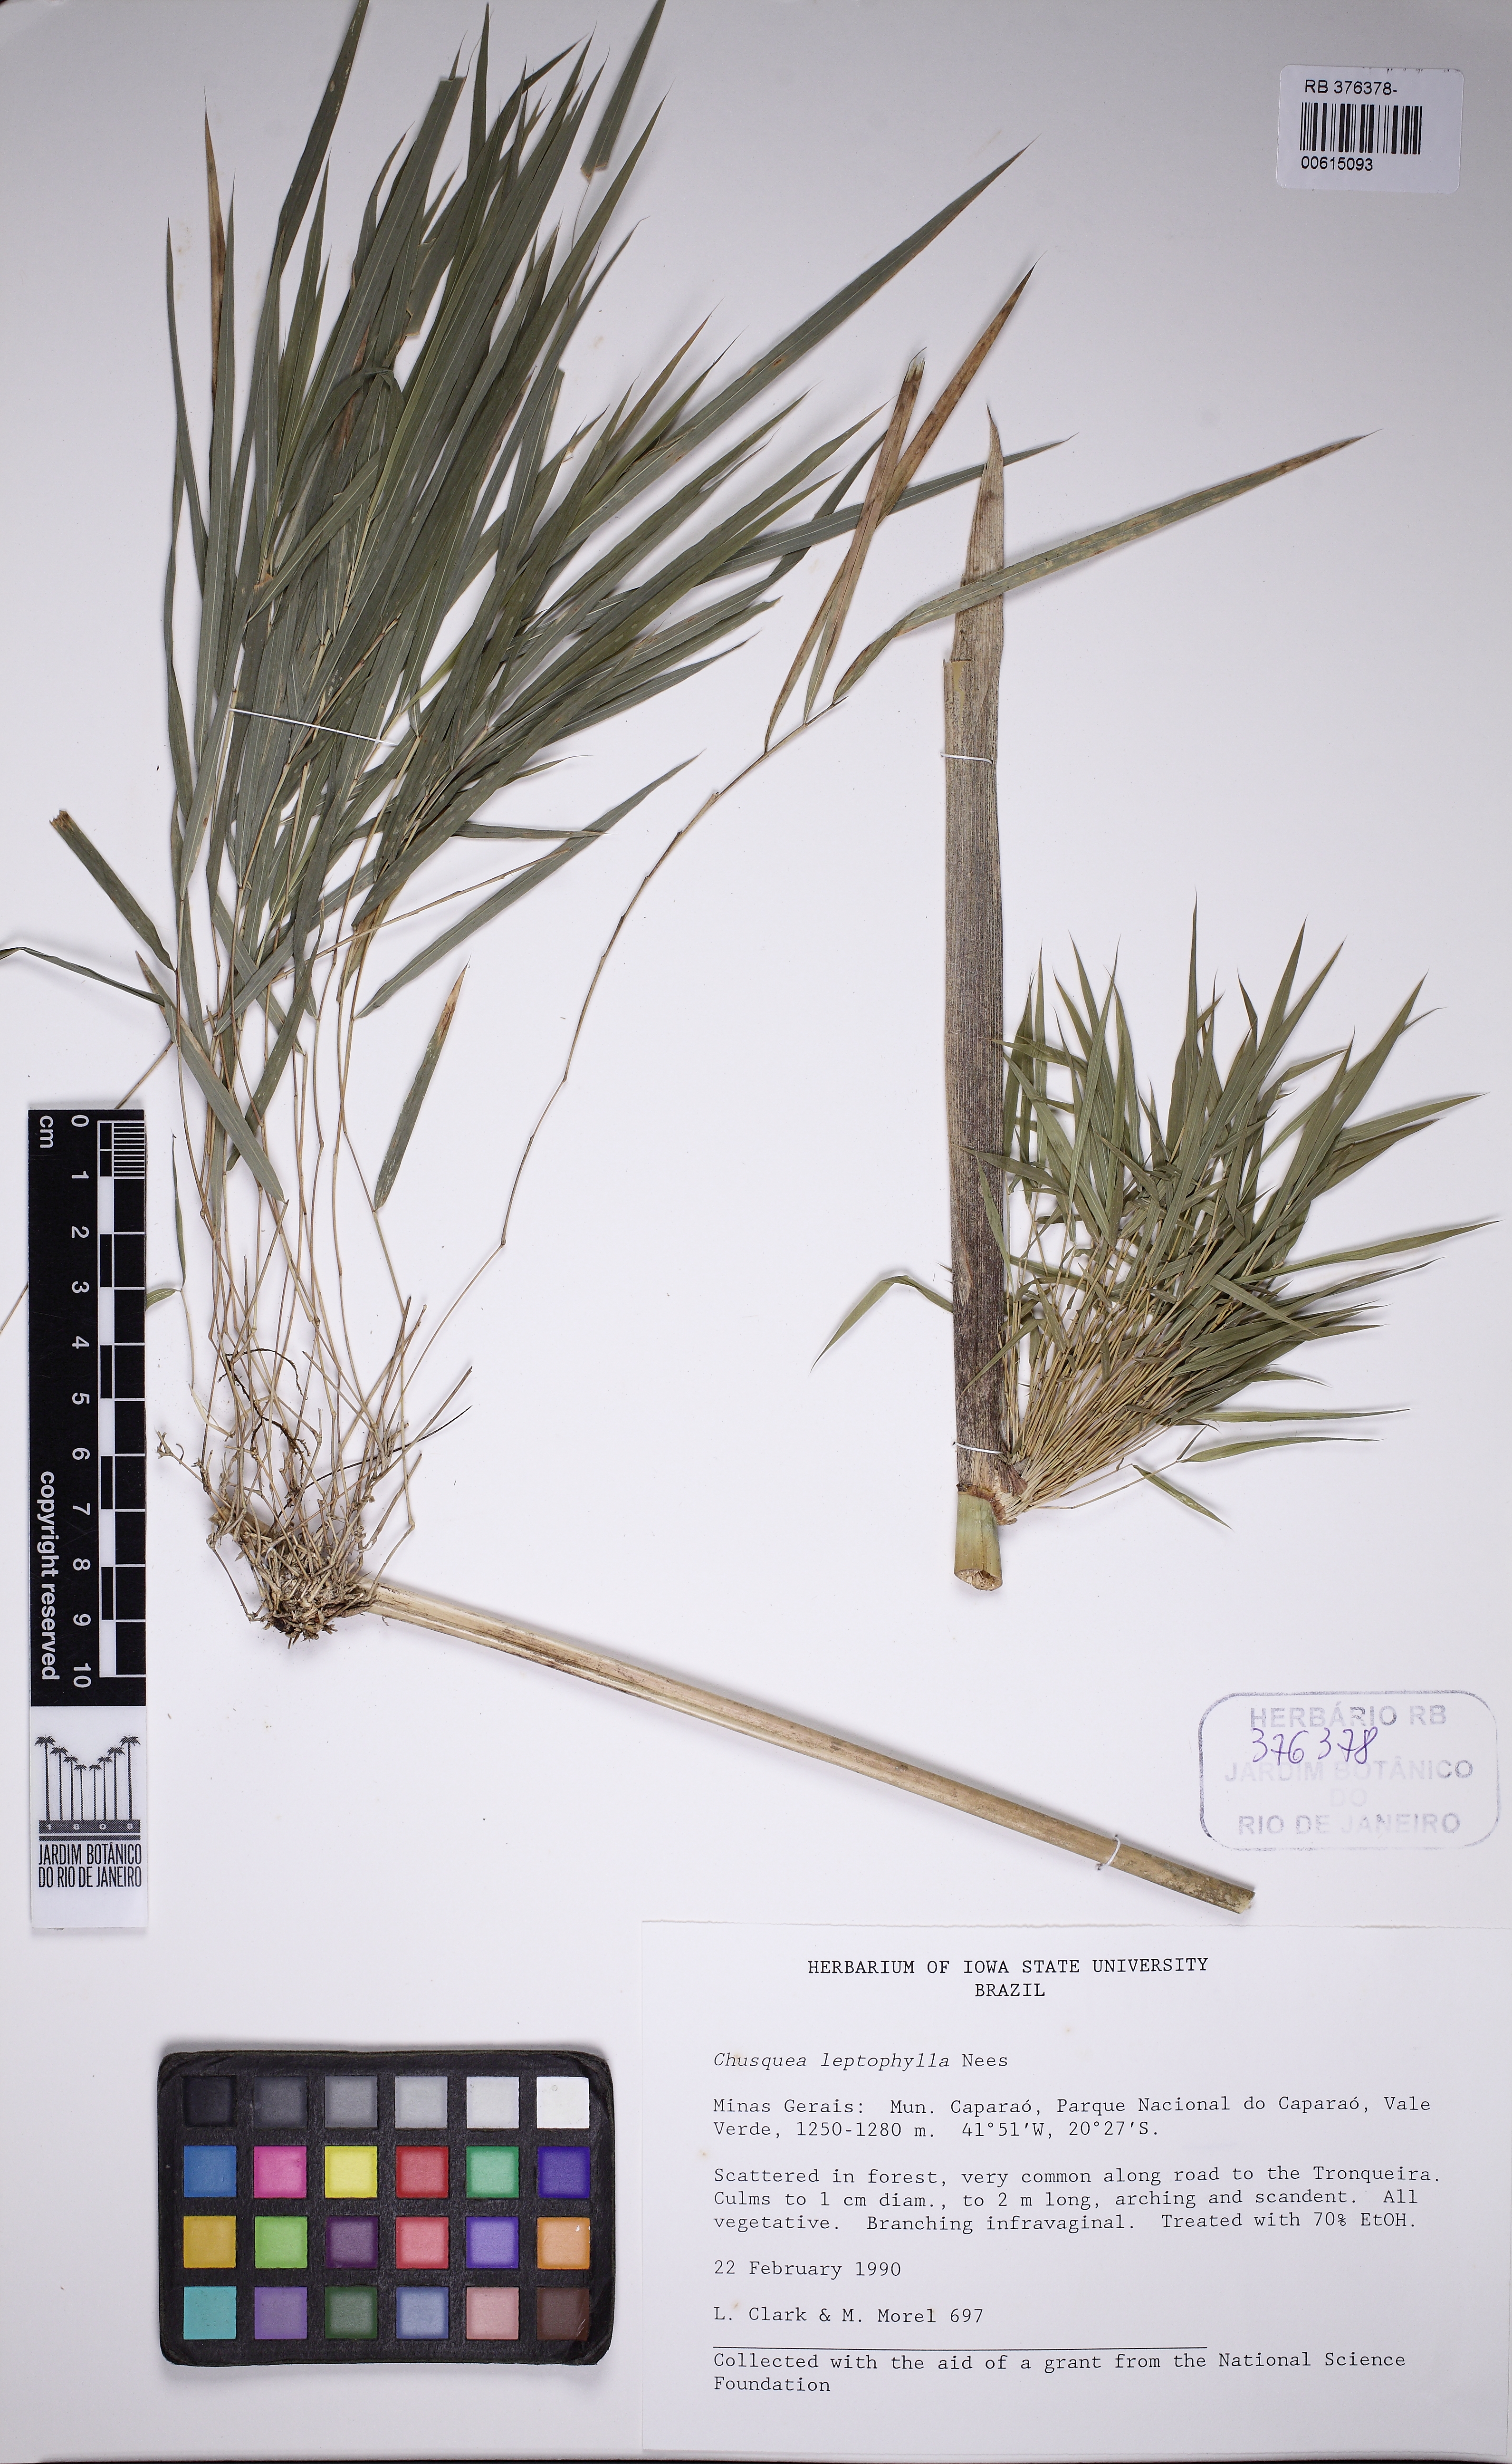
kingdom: Plantae
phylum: Tracheophyta
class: Liliopsida
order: Poales
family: Poaceae
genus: Chusquea
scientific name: Chusquea leptophylla
